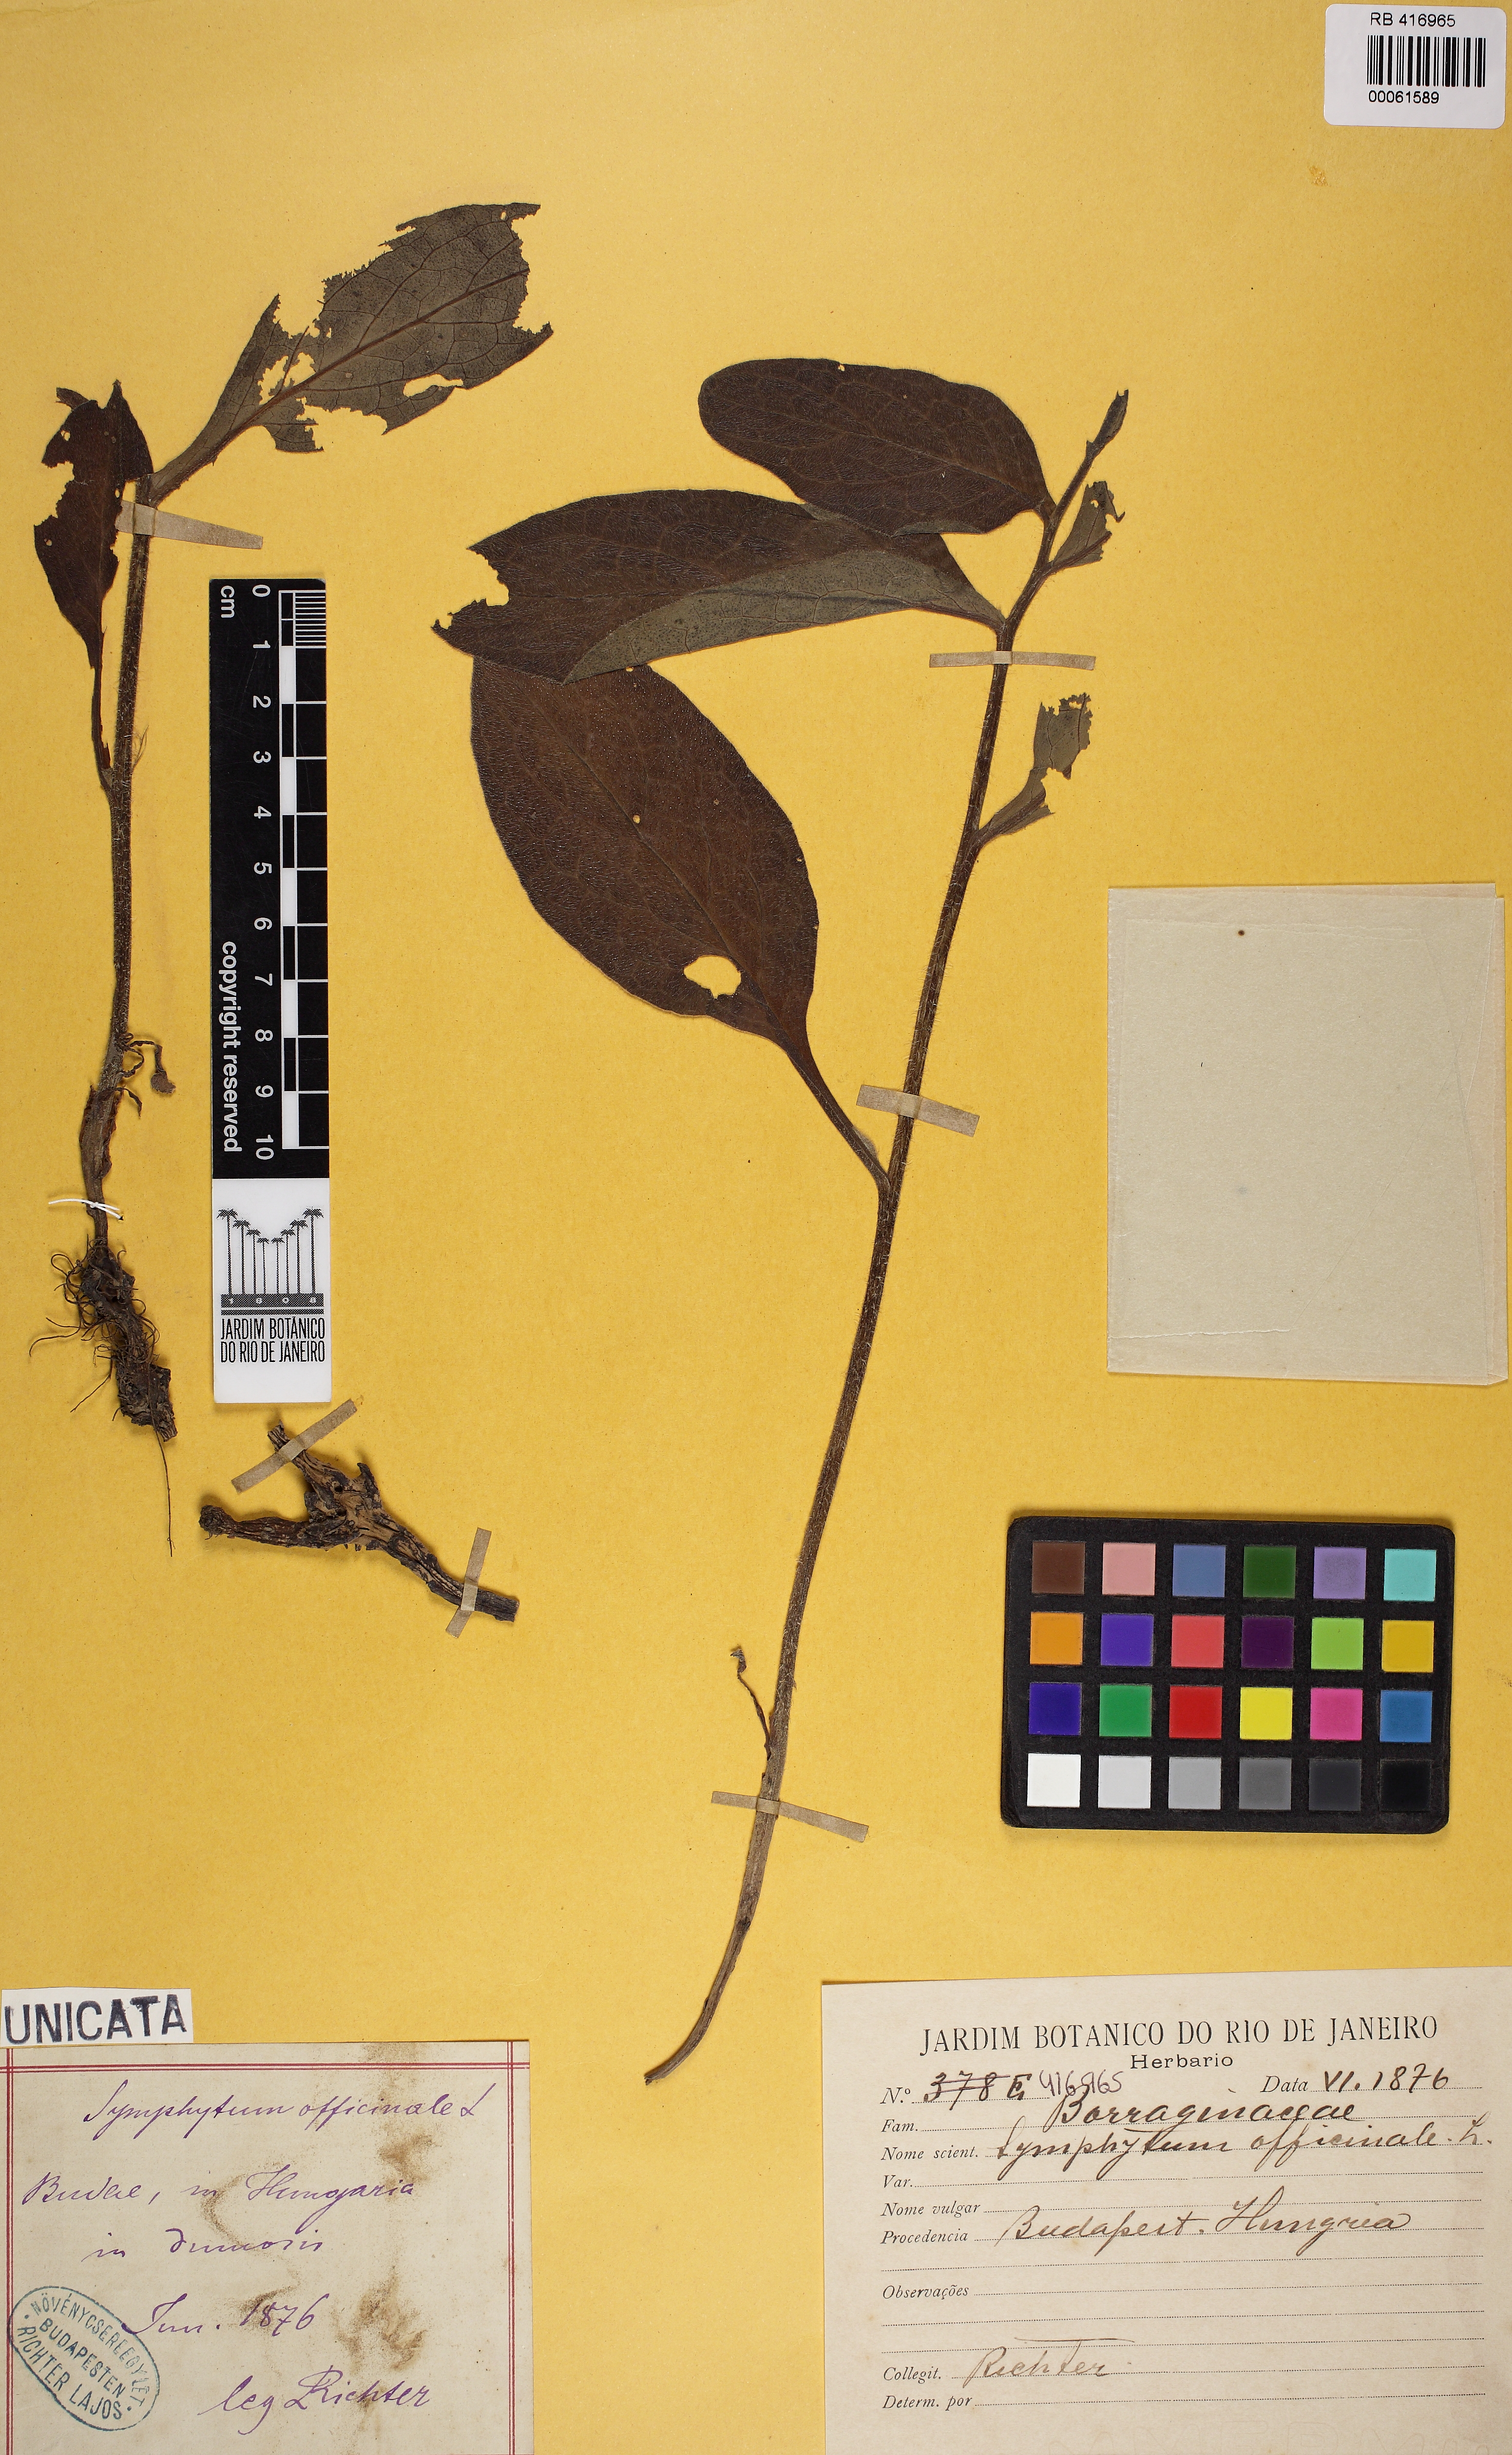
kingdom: Plantae
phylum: Tracheophyta
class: Magnoliopsida
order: Boraginales
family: Boraginaceae
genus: Symphytum
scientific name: Symphytum officinale
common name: Common comfrey
